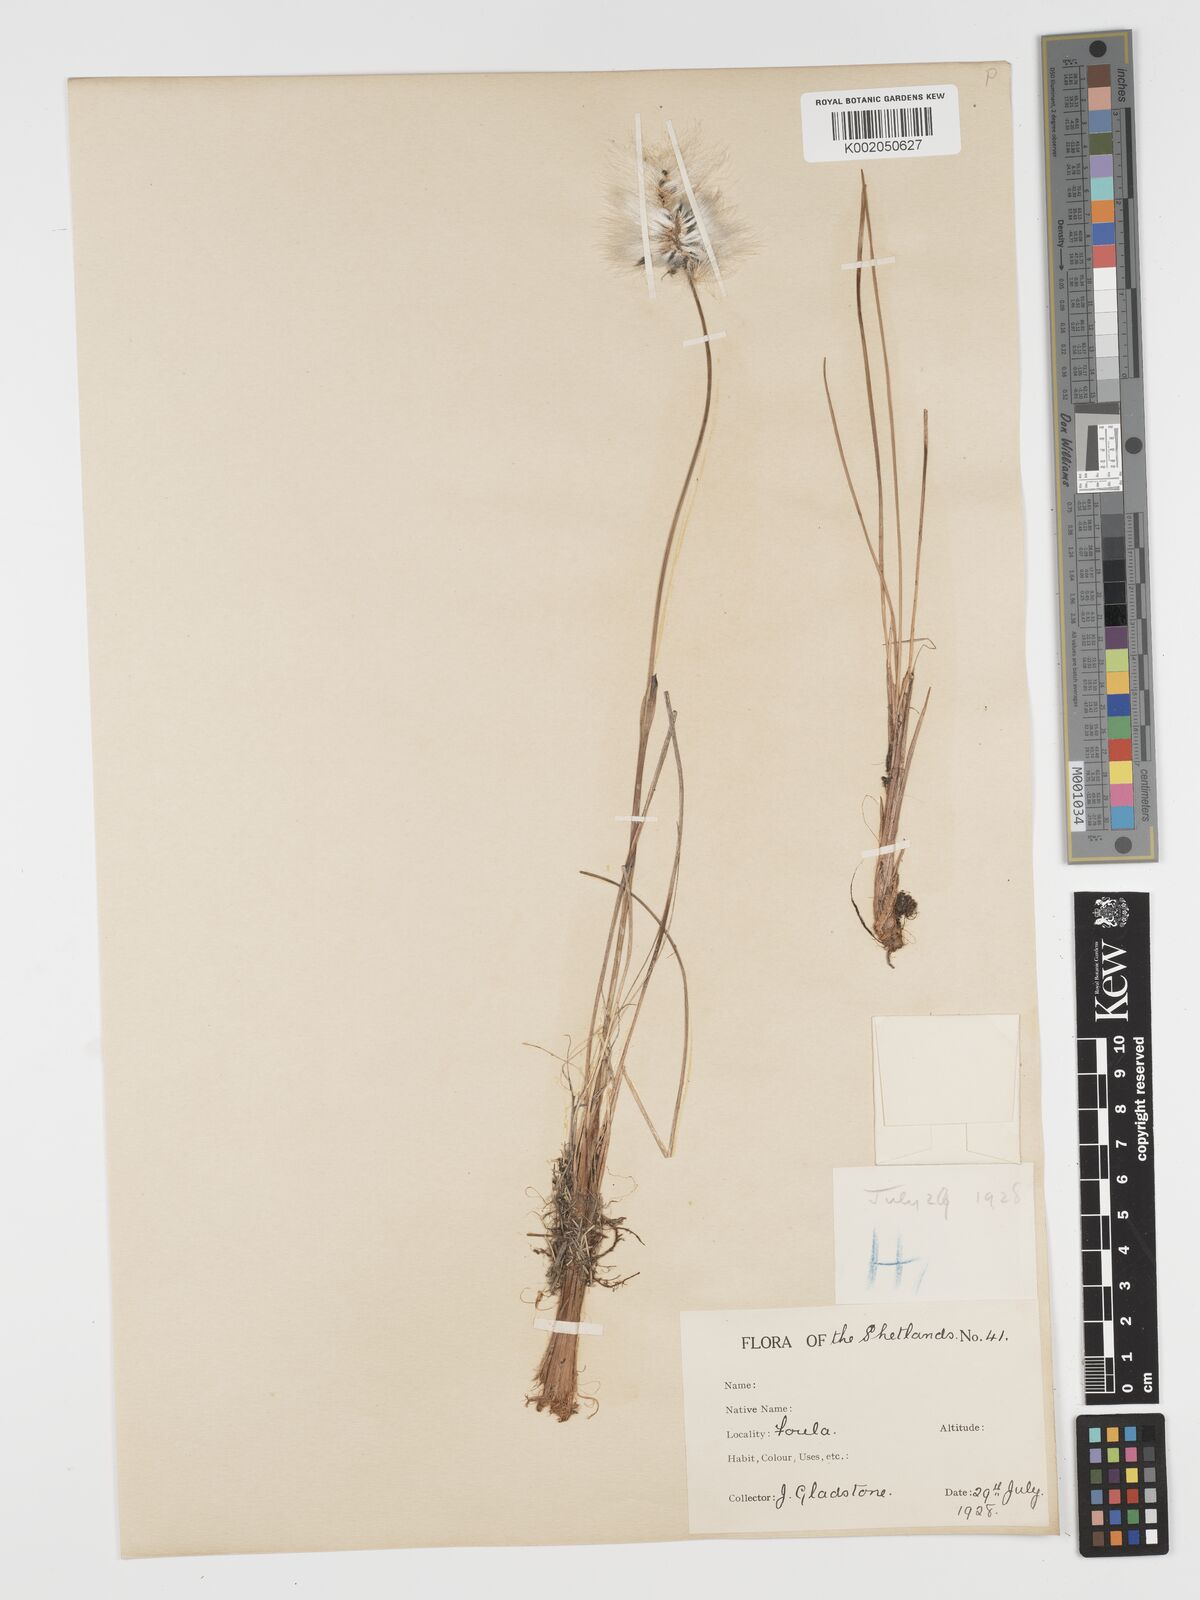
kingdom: Plantae
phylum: Tracheophyta
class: Liliopsida
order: Poales
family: Cyperaceae
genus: Eriophorum
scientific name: Eriophorum vaginatum
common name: Hare's-tail cottongrass
